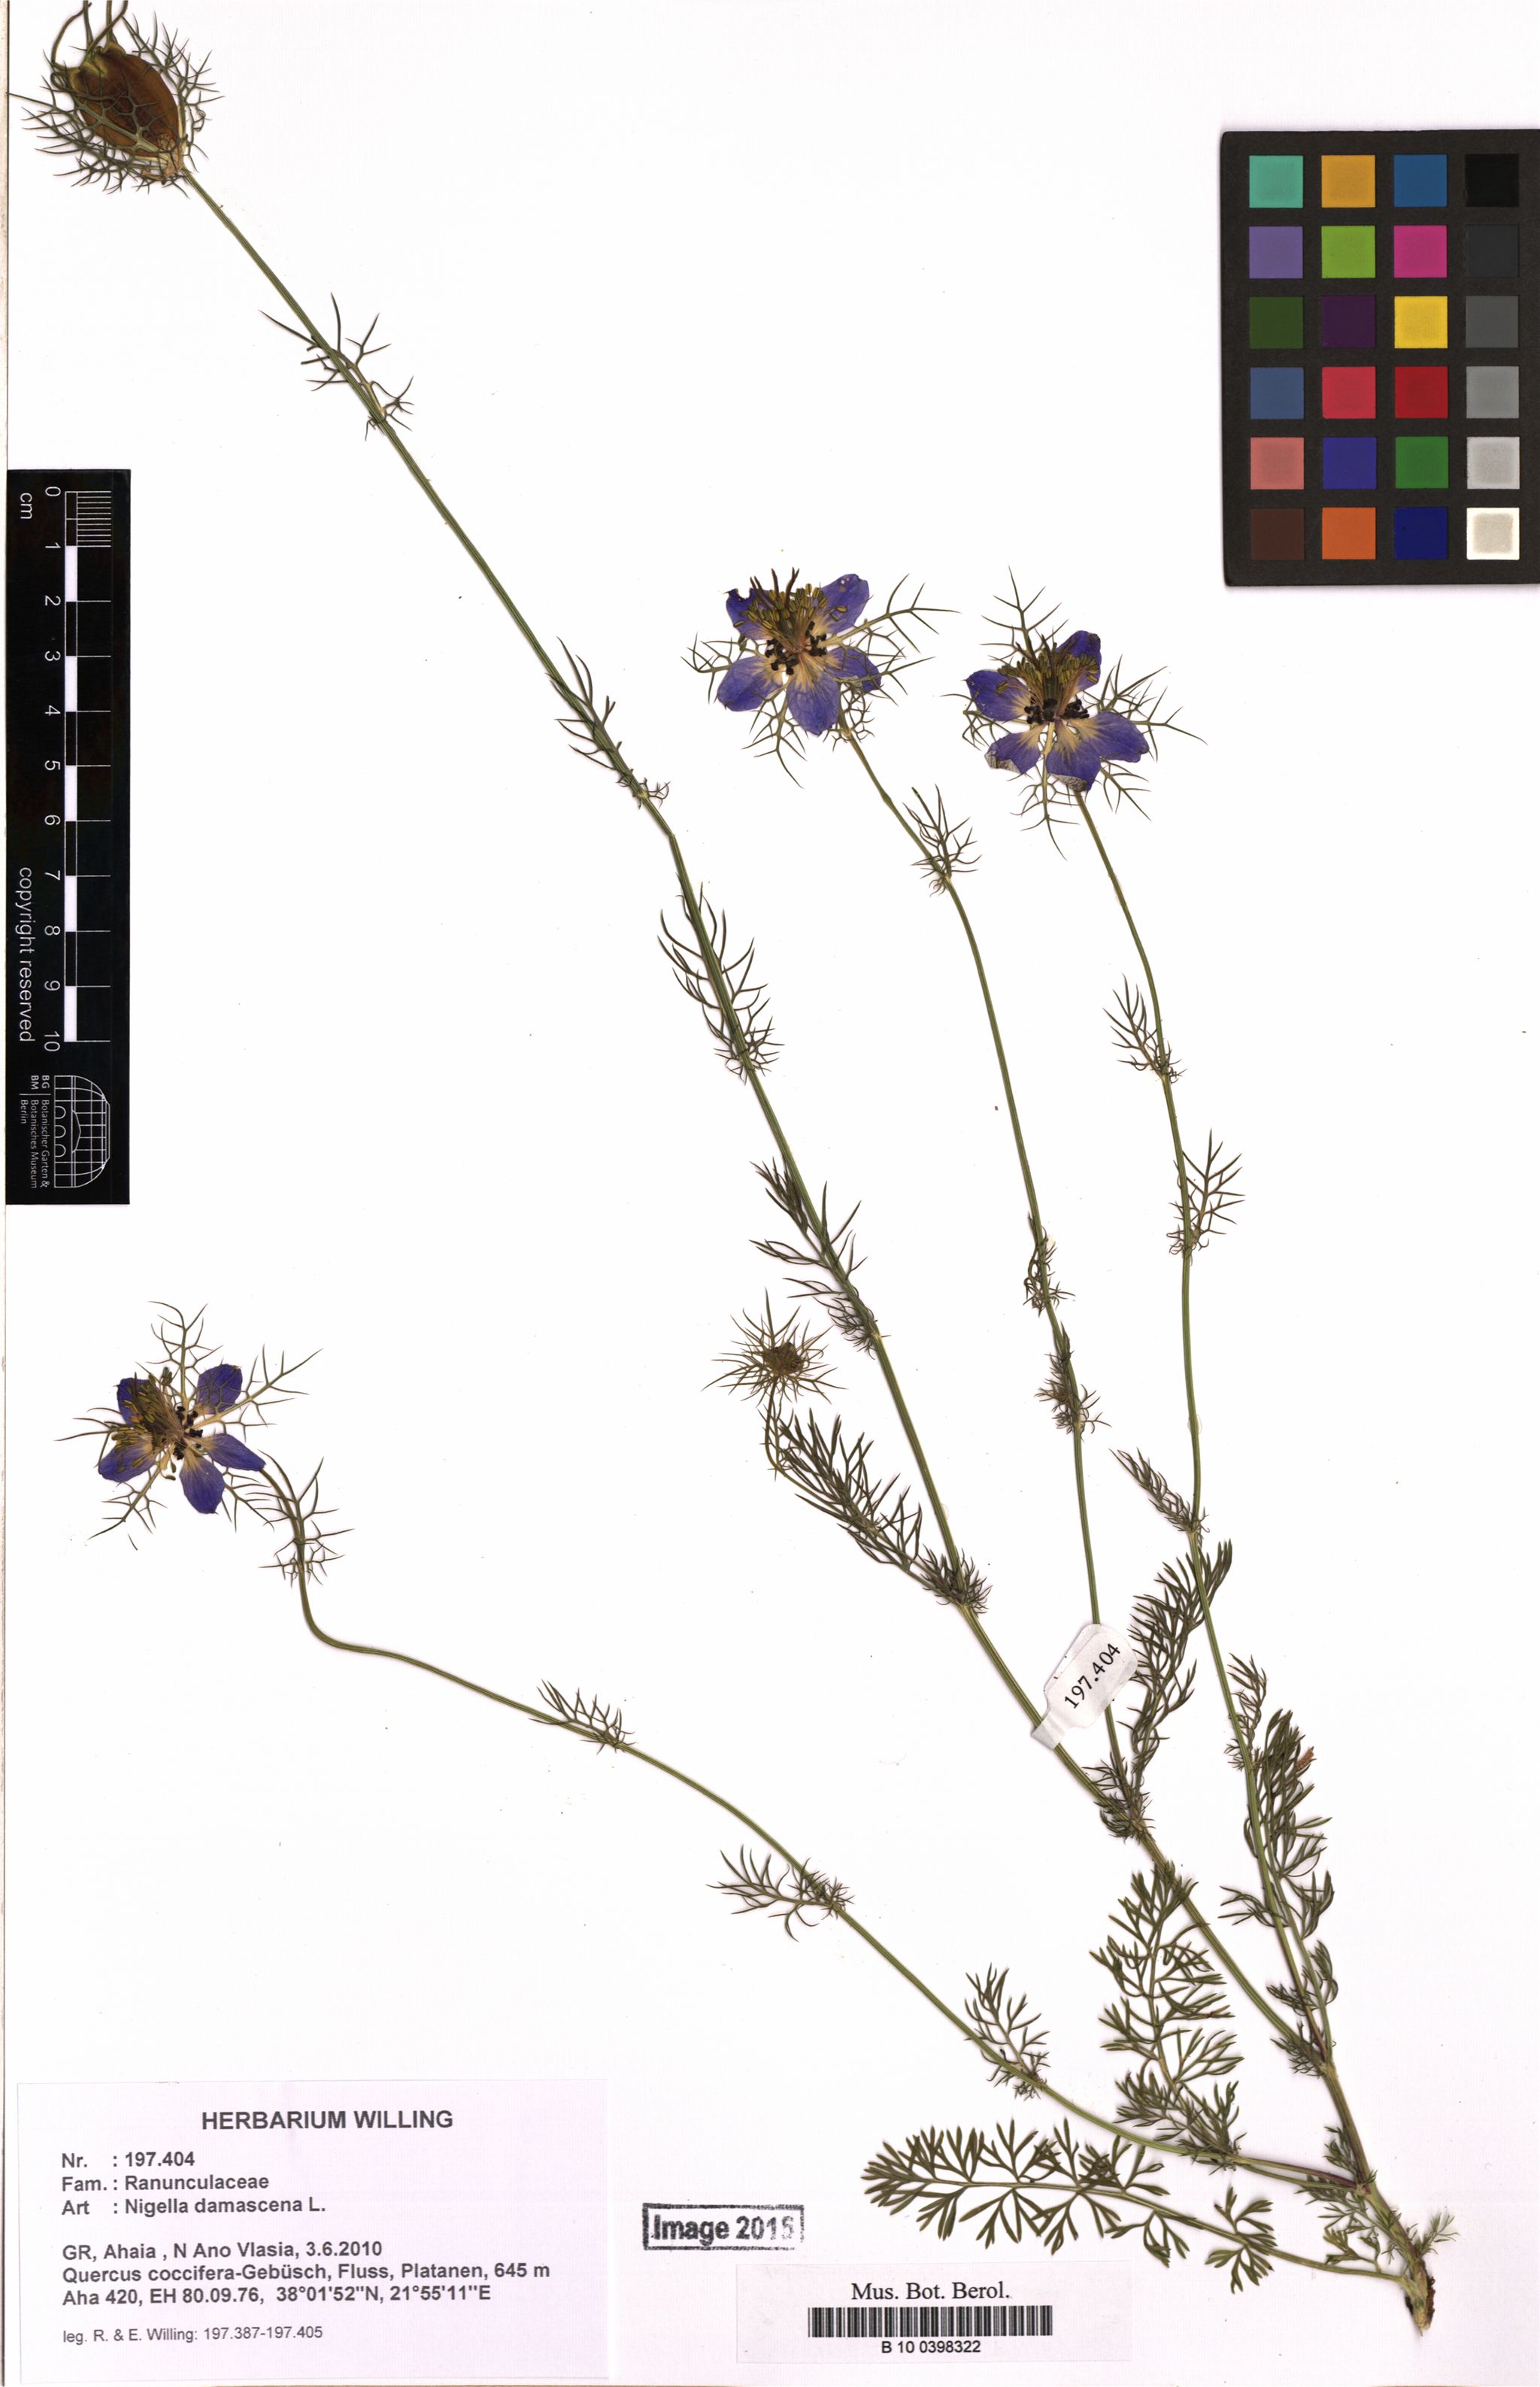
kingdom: Plantae
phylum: Tracheophyta
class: Magnoliopsida
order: Ranunculales
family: Ranunculaceae
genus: Nigella
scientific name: Nigella damascena
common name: Love-in-a-mist
